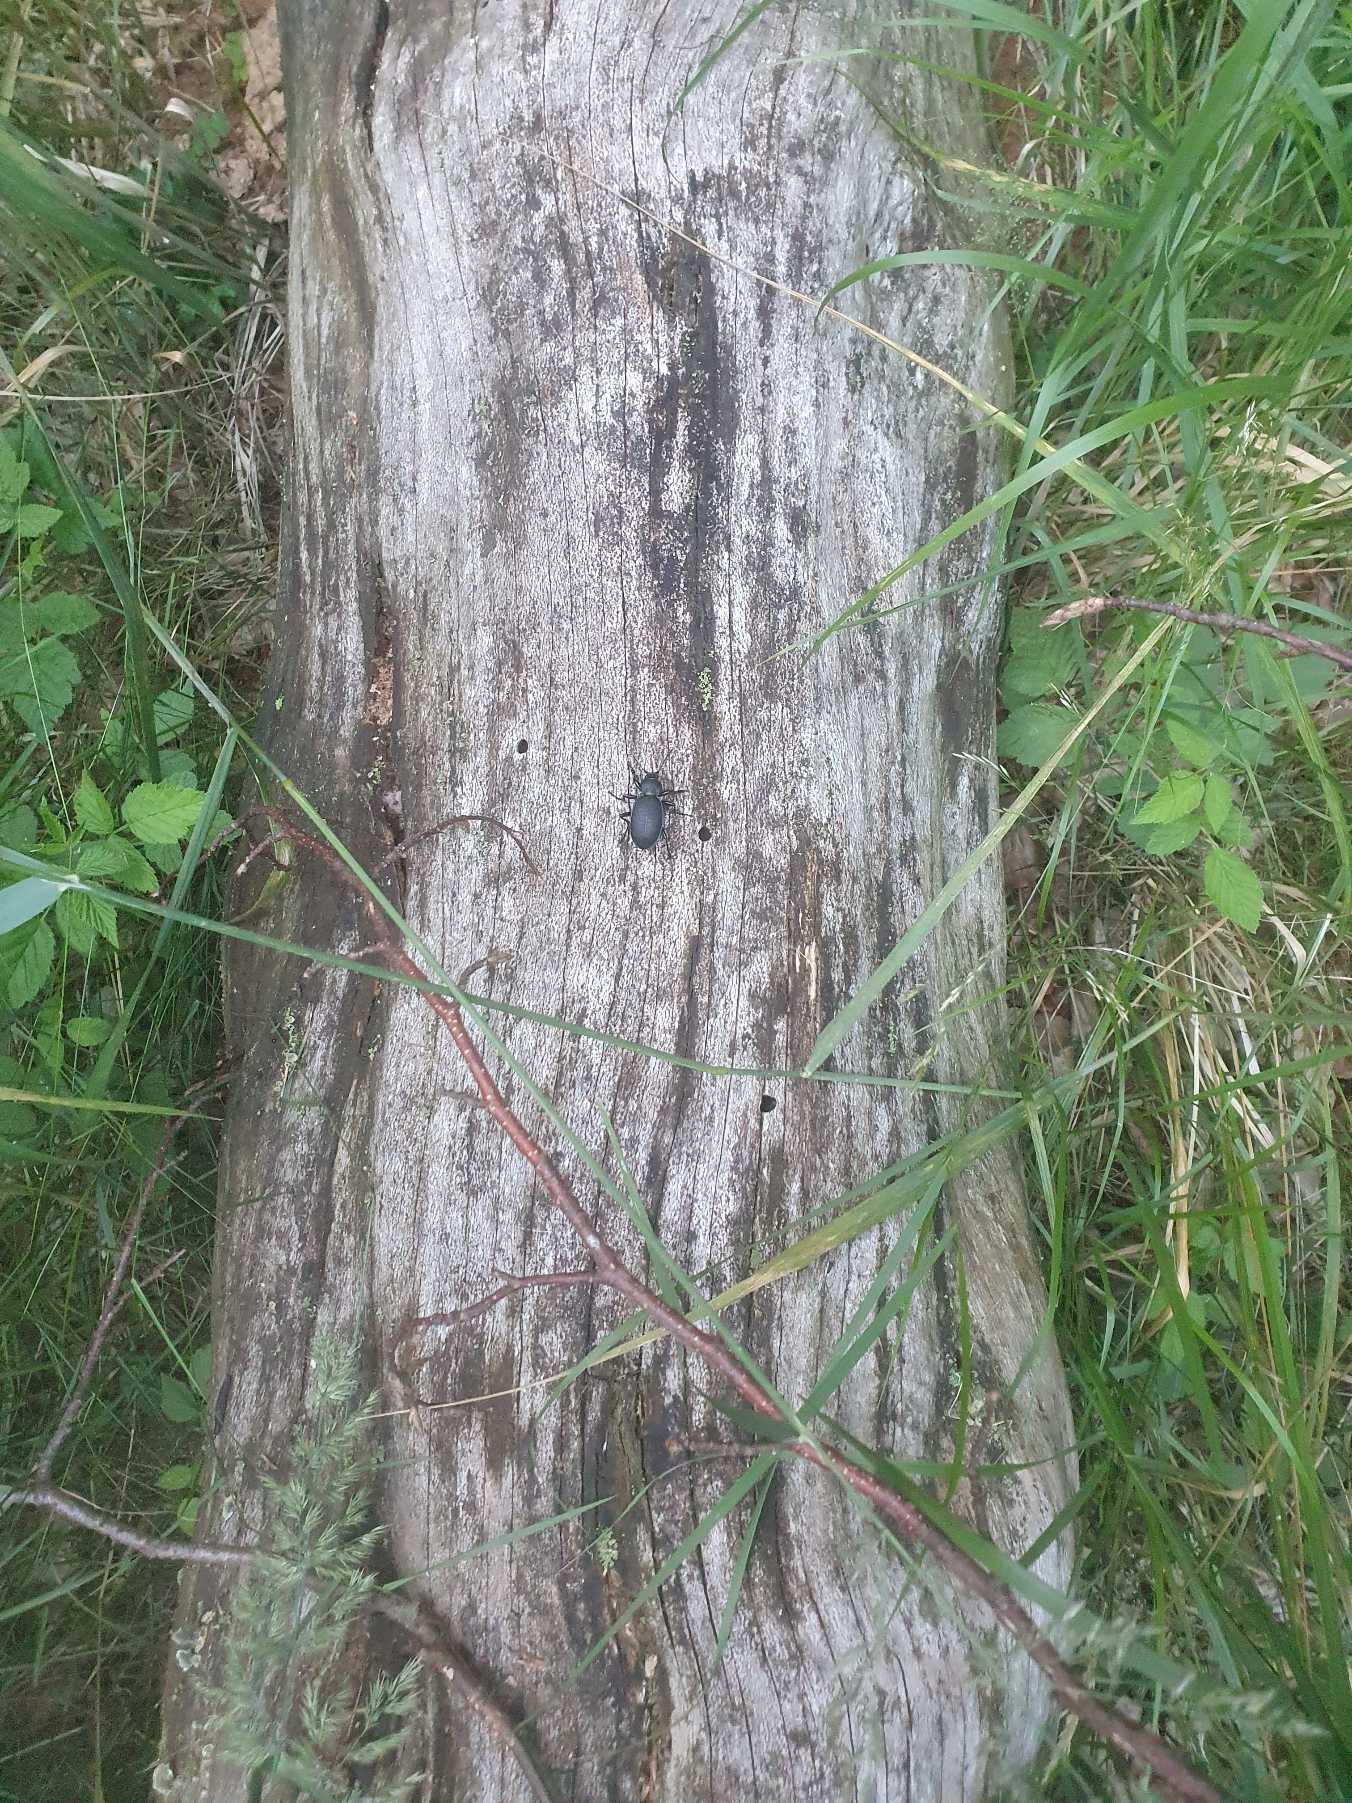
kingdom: Animalia
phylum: Arthropoda
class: Insecta
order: Coleoptera
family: Carabidae
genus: Carabus
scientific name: Carabus coriaceus
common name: Læderløber
